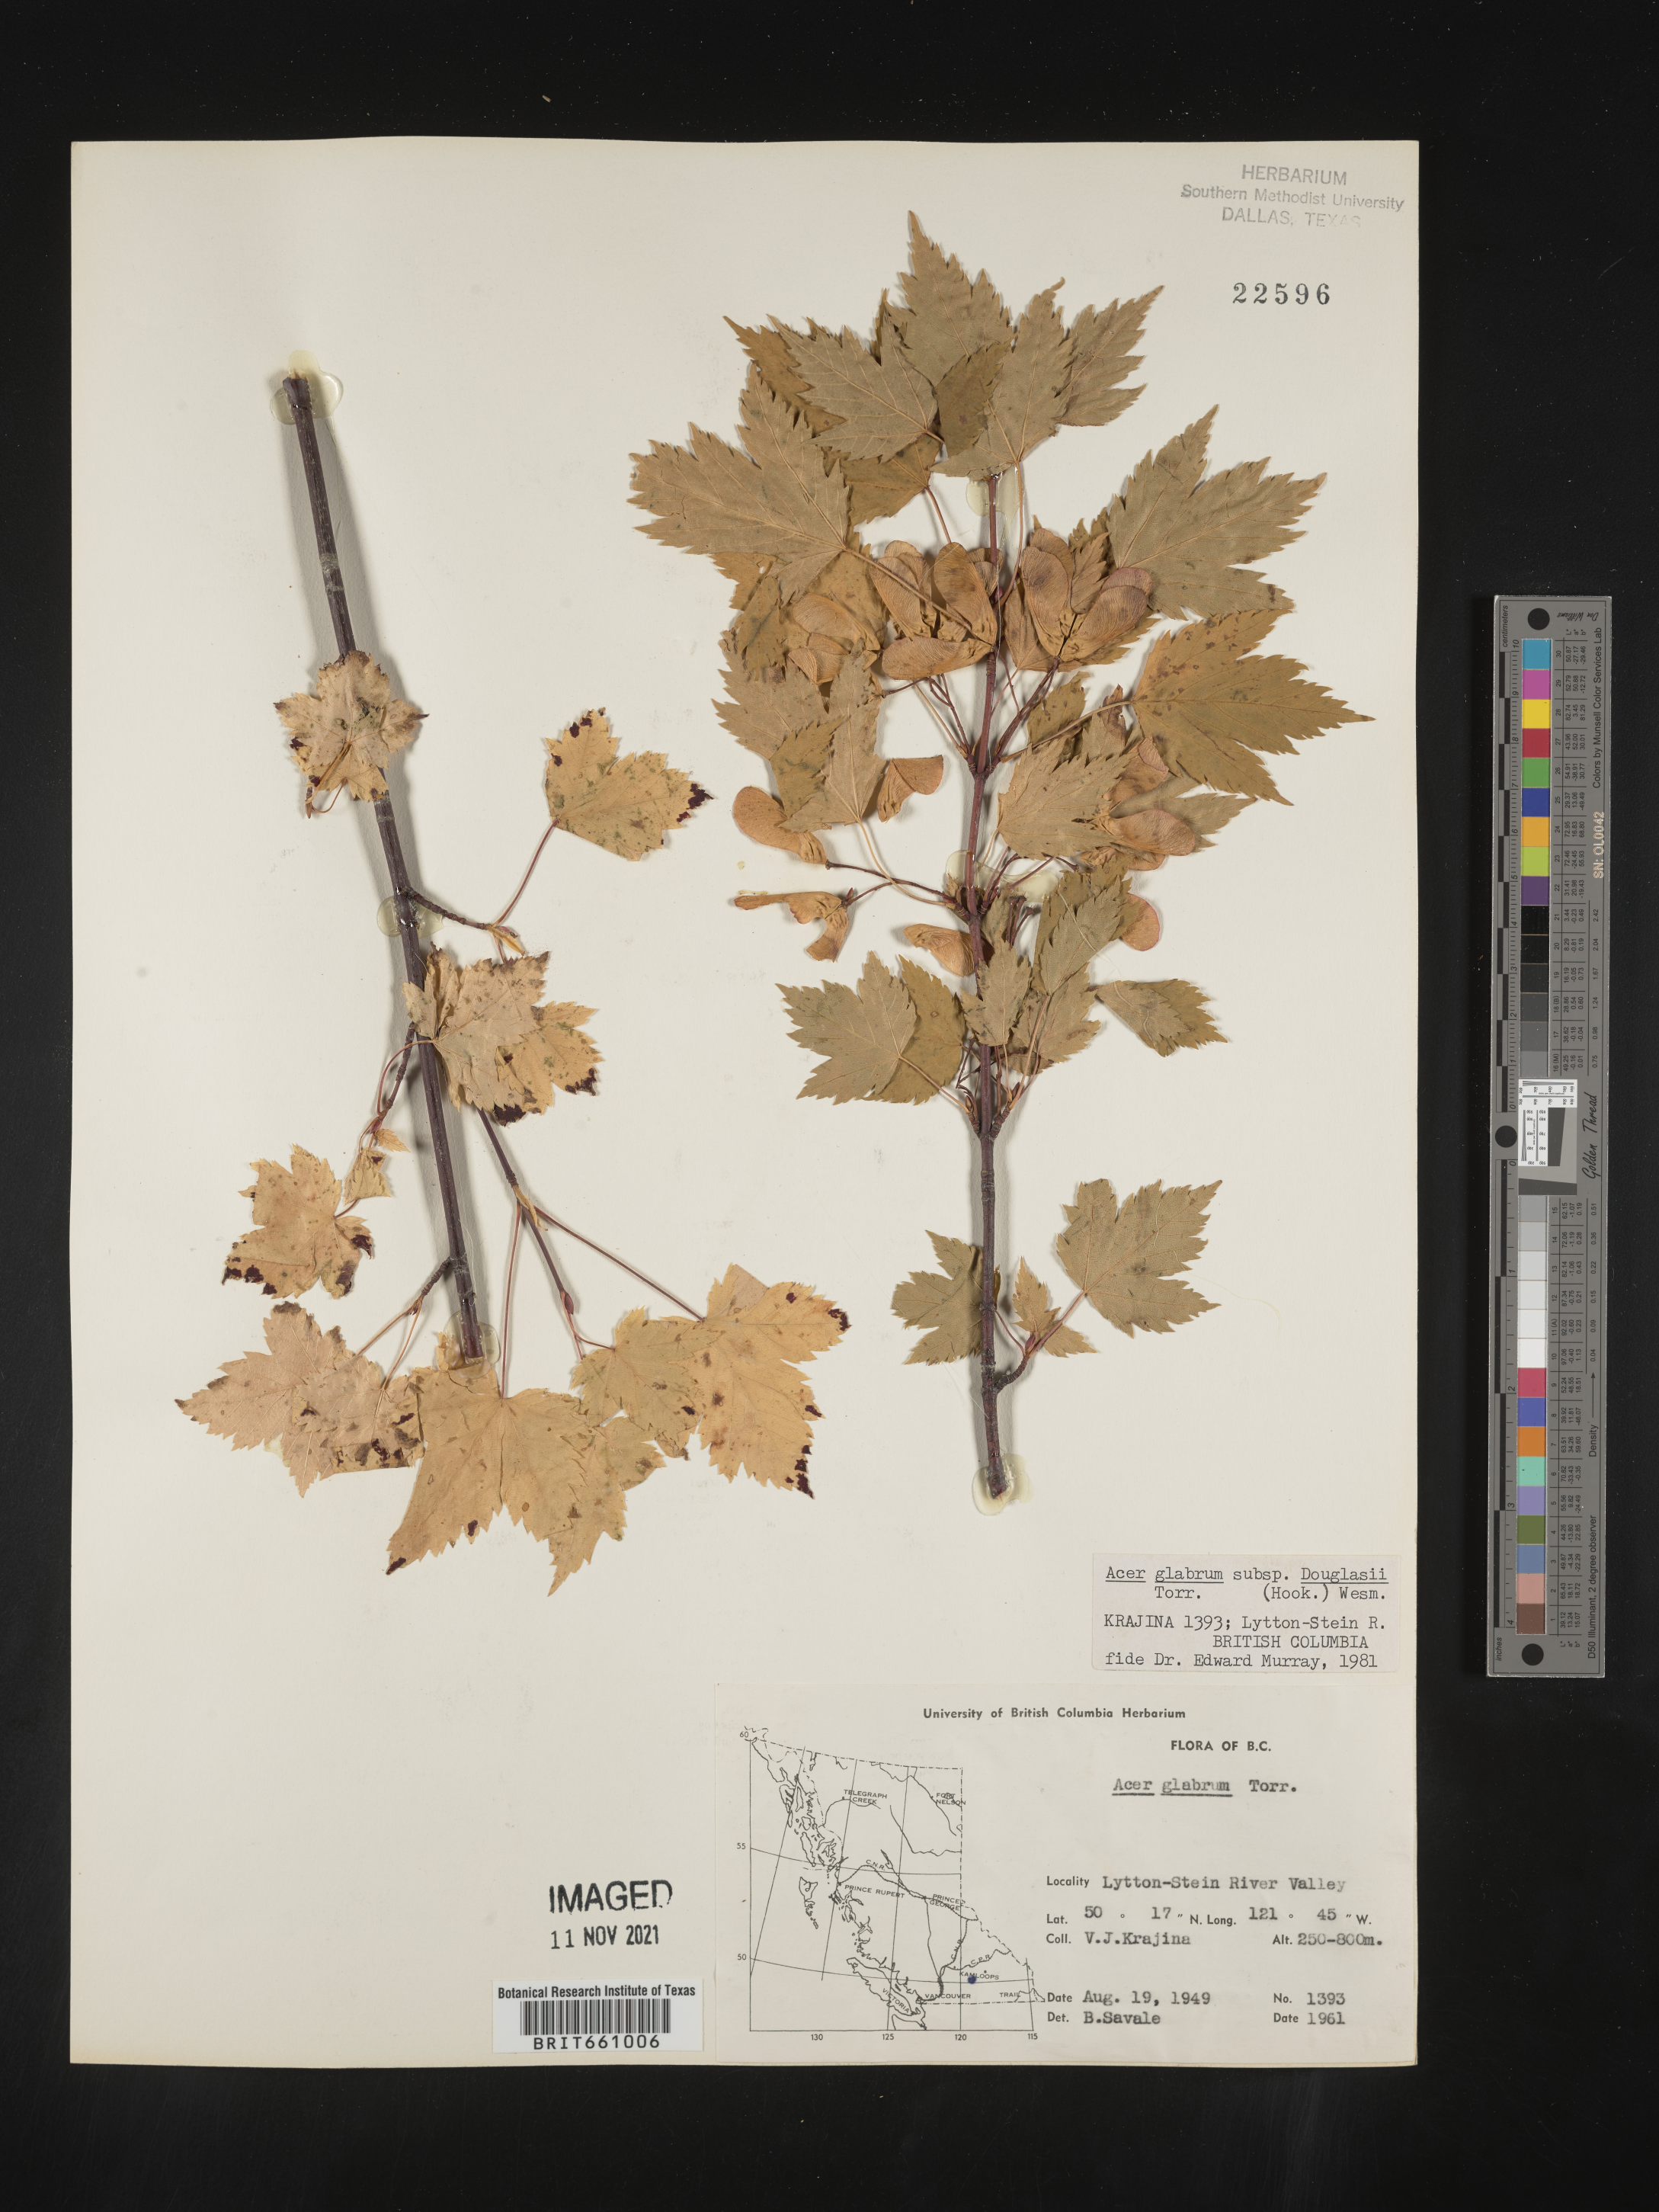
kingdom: Plantae
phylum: Tracheophyta
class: Magnoliopsida
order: Sapindales
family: Sapindaceae
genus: Acer
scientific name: Acer glabrum
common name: Rocky mountain maple
